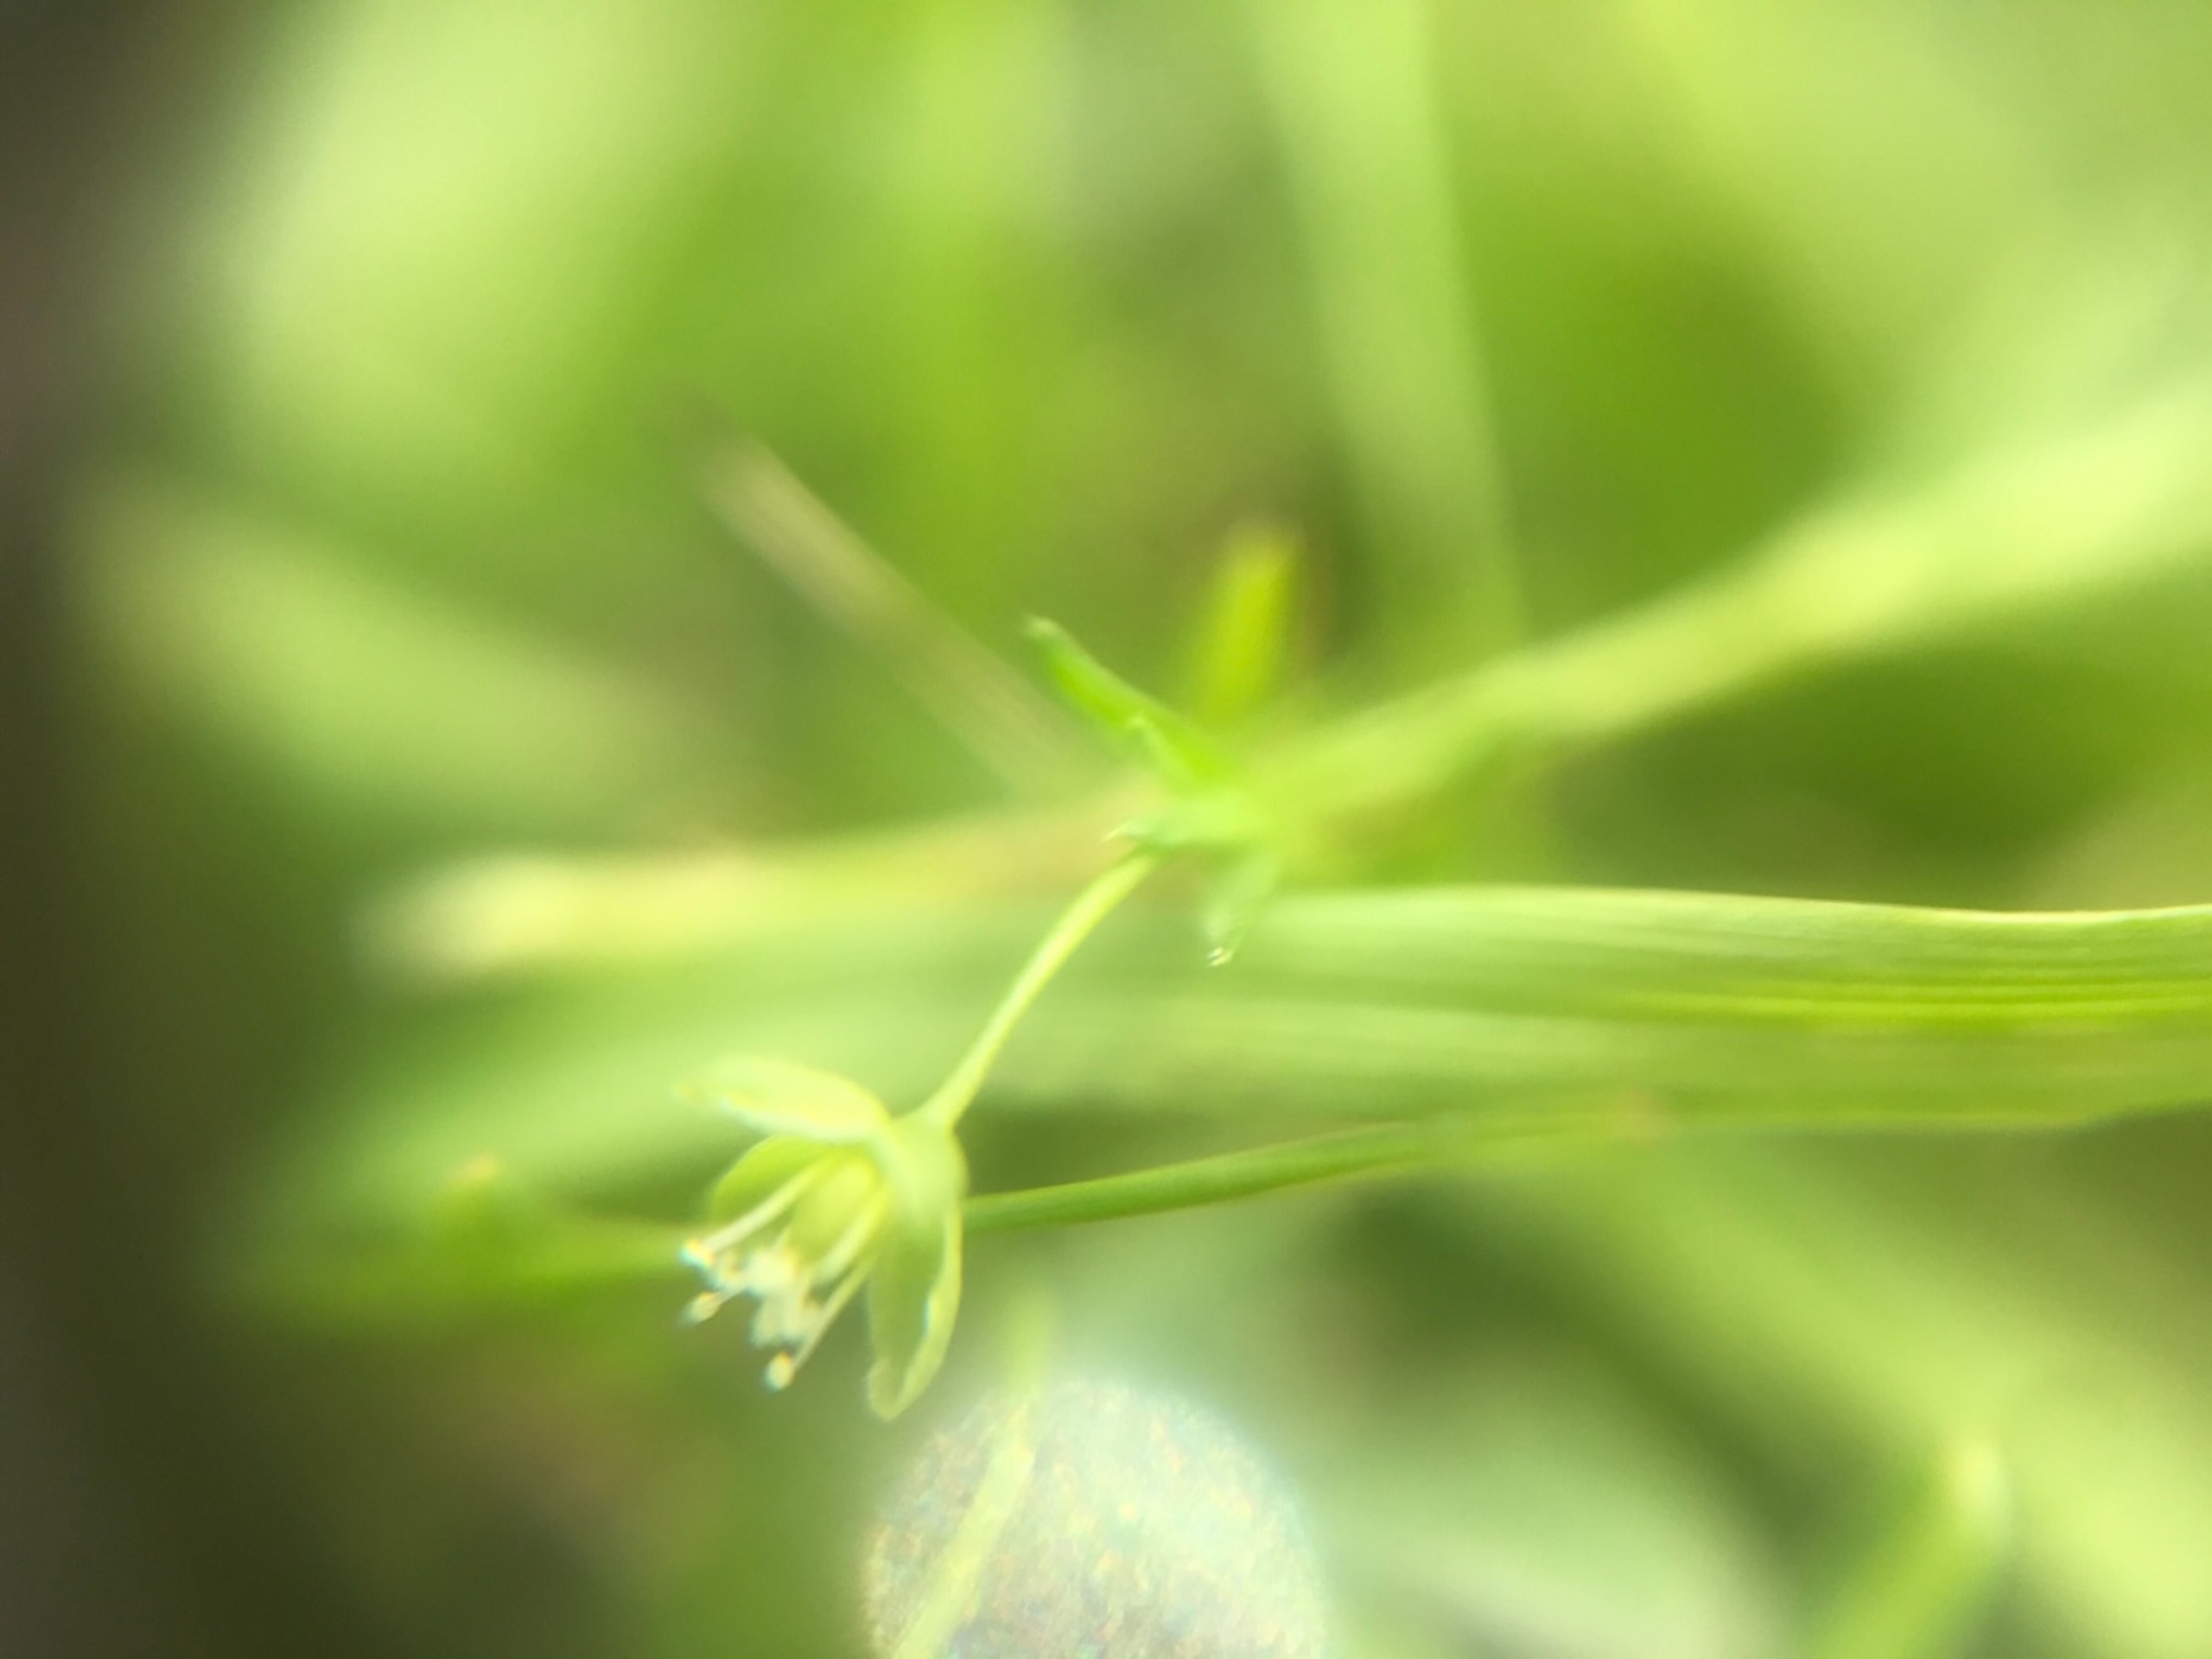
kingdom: Plantae
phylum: Tracheophyta
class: Magnoliopsida
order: Caryophyllales
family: Caryophyllaceae
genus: Sagina
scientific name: Sagina procumbens
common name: Almindelig firling
